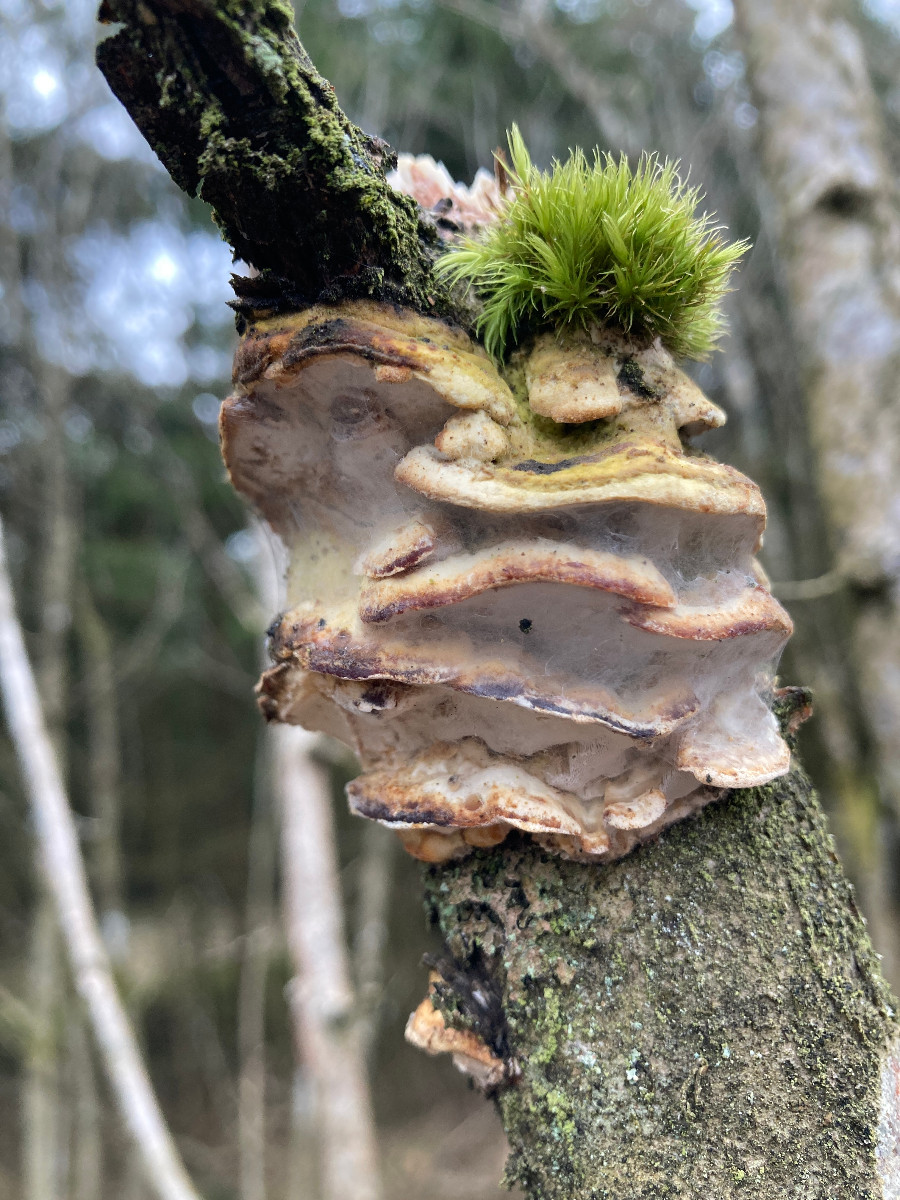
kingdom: Fungi
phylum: Basidiomycota
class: Agaricomycetes
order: Hymenochaetales
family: Oxyporaceae
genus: Oxyporus
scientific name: Oxyporus populinus
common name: sammenvokset trylleporesvamp
